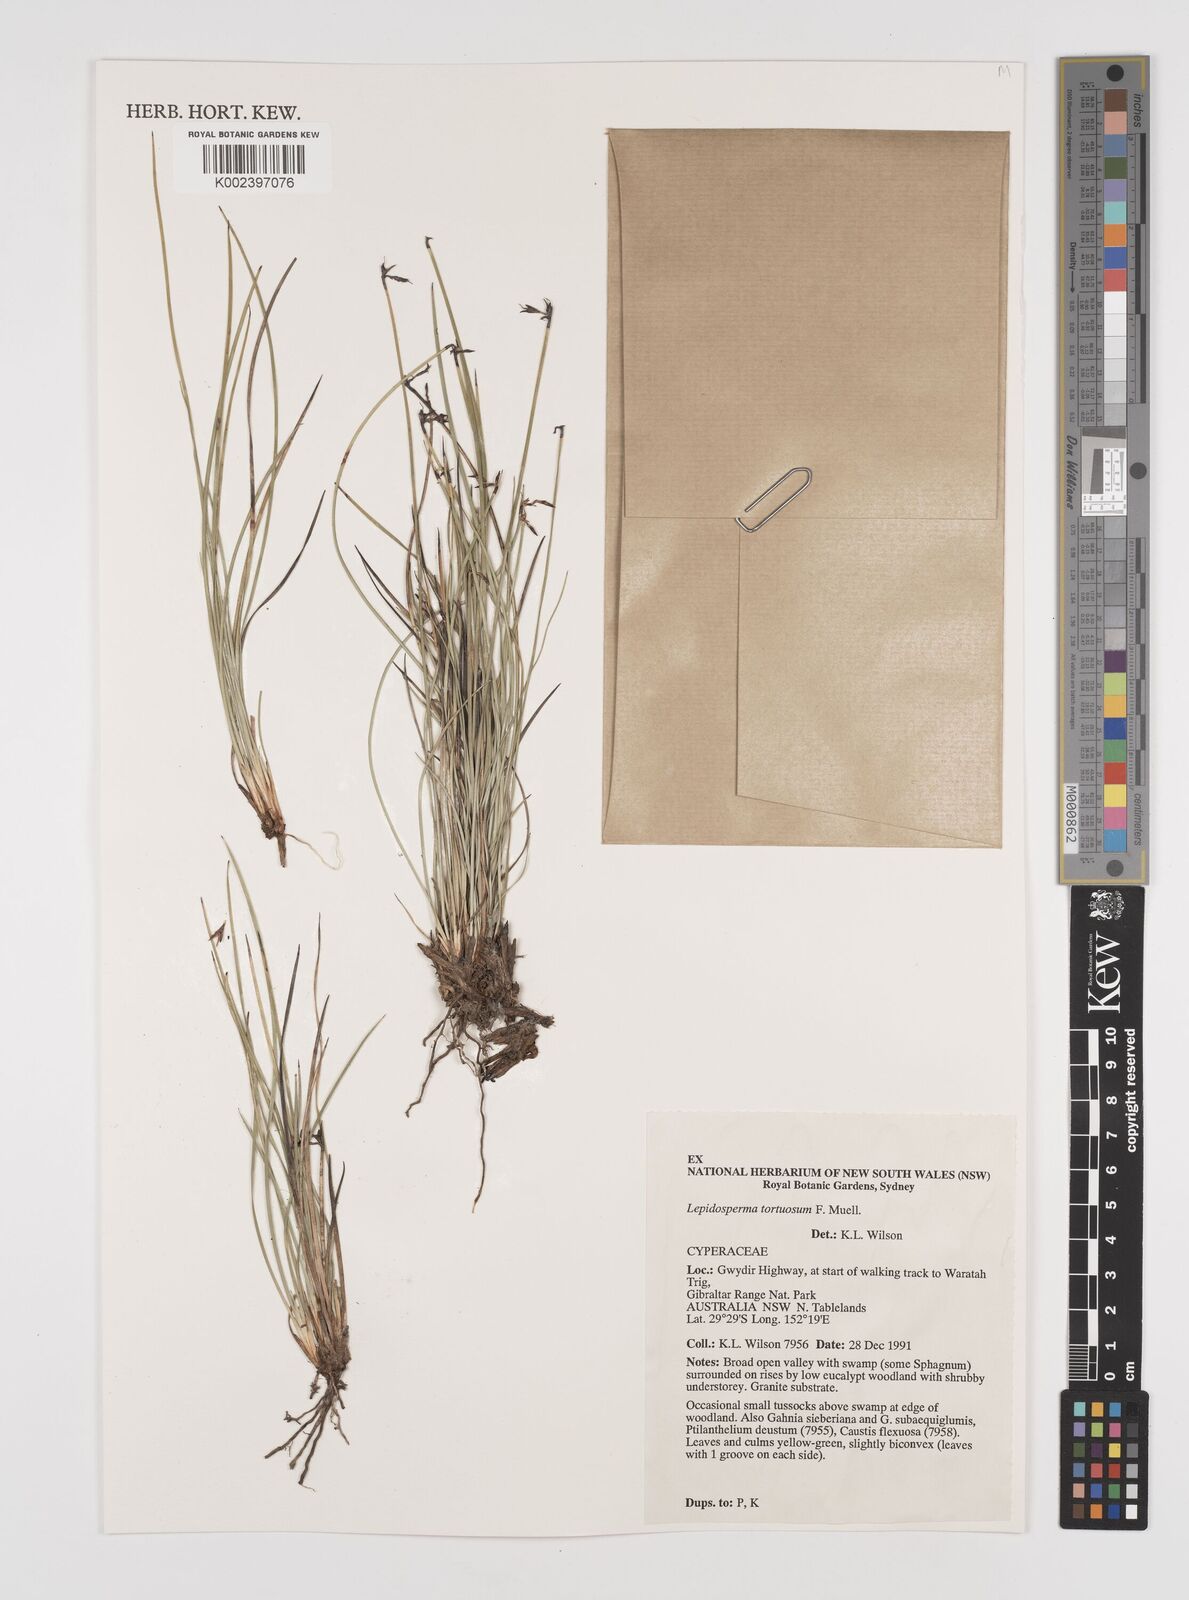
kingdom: Plantae
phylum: Tracheophyta
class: Liliopsida
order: Poales
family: Cyperaceae
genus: Lepidosperma
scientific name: Lepidosperma tortuosum
